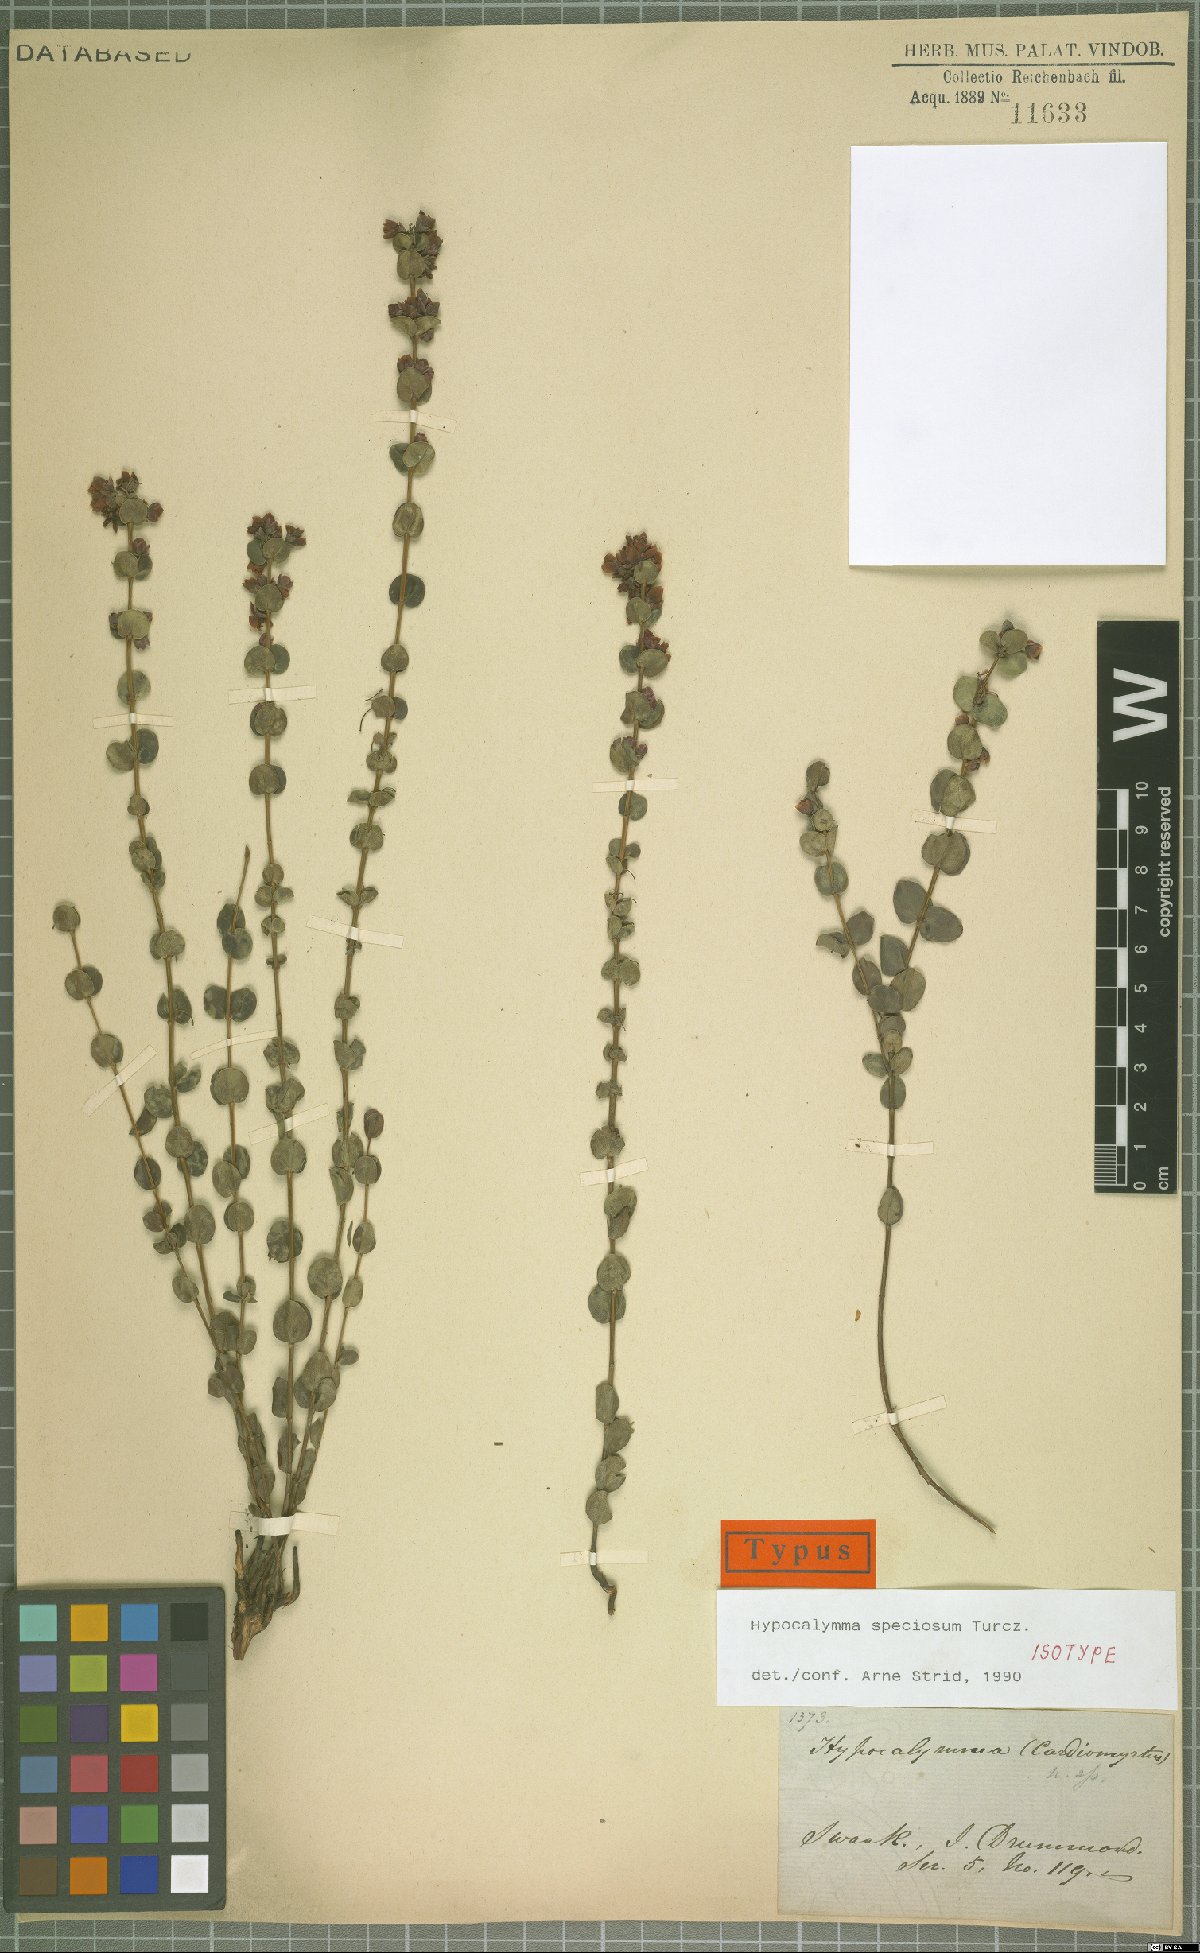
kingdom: Plantae
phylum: Tracheophyta
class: Magnoliopsida
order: Myrtales
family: Myrtaceae
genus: Hypocalymma
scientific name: Hypocalymma speciosum
